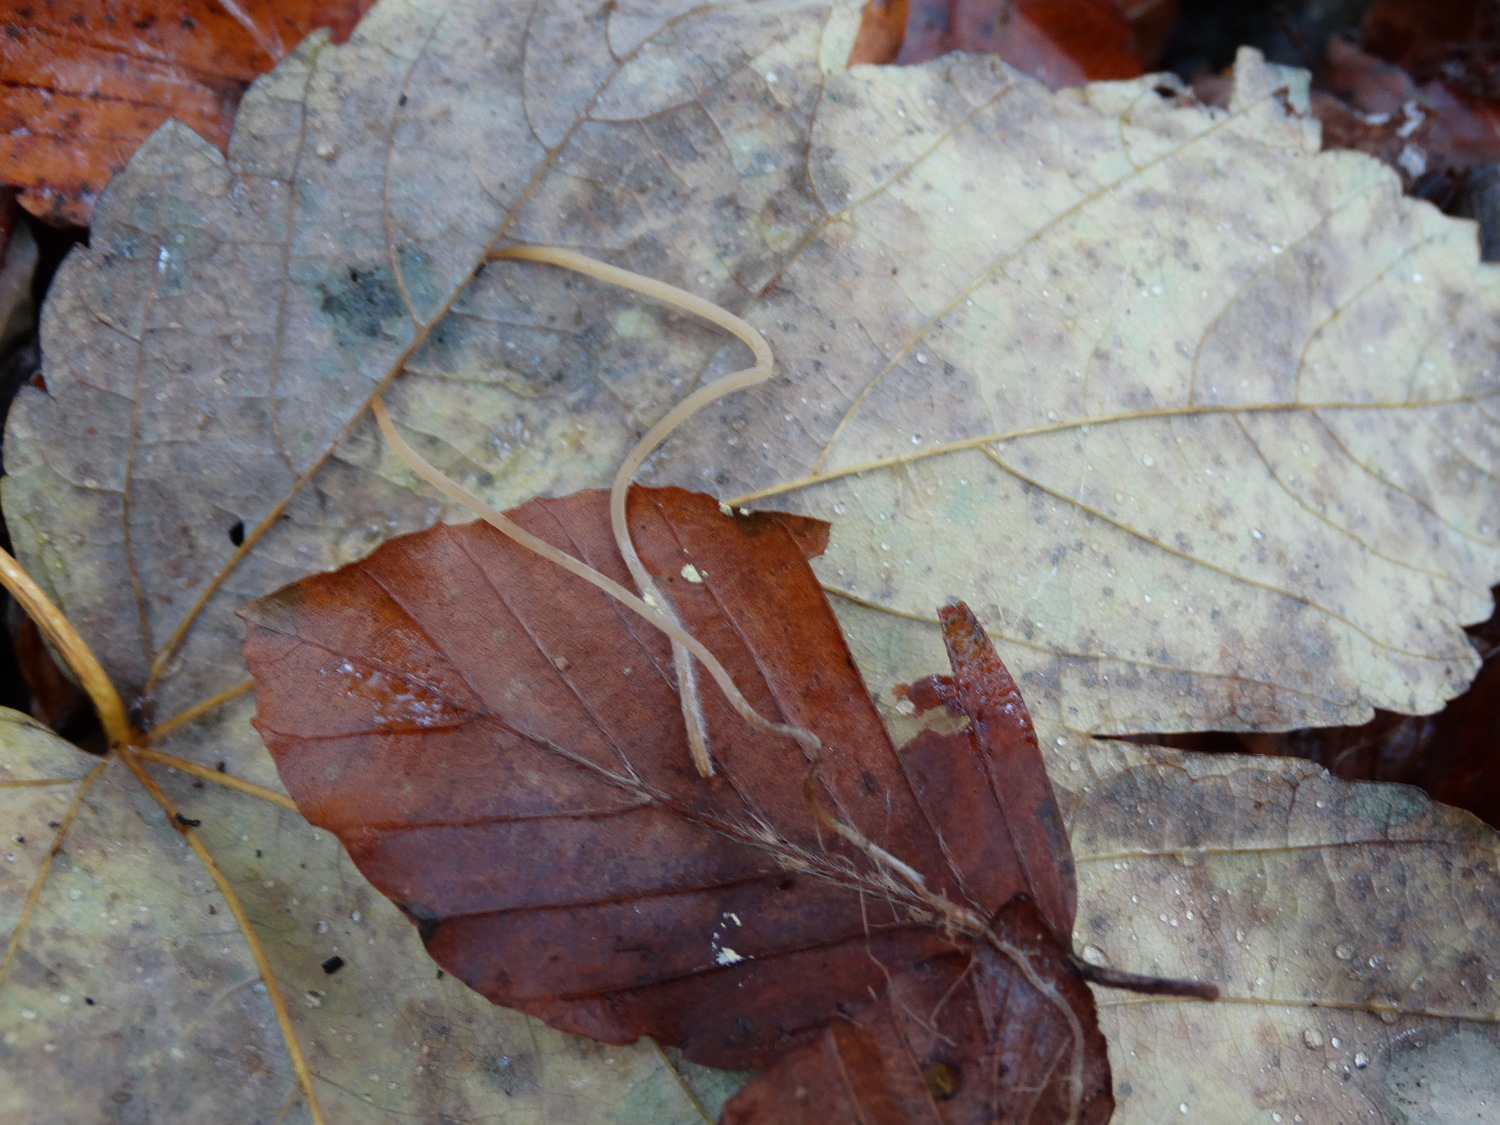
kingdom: Fungi
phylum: Basidiomycota
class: Agaricomycetes
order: Agaricales
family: Typhulaceae
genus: Typhula
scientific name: Typhula juncea
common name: trådagtig rørkølle
